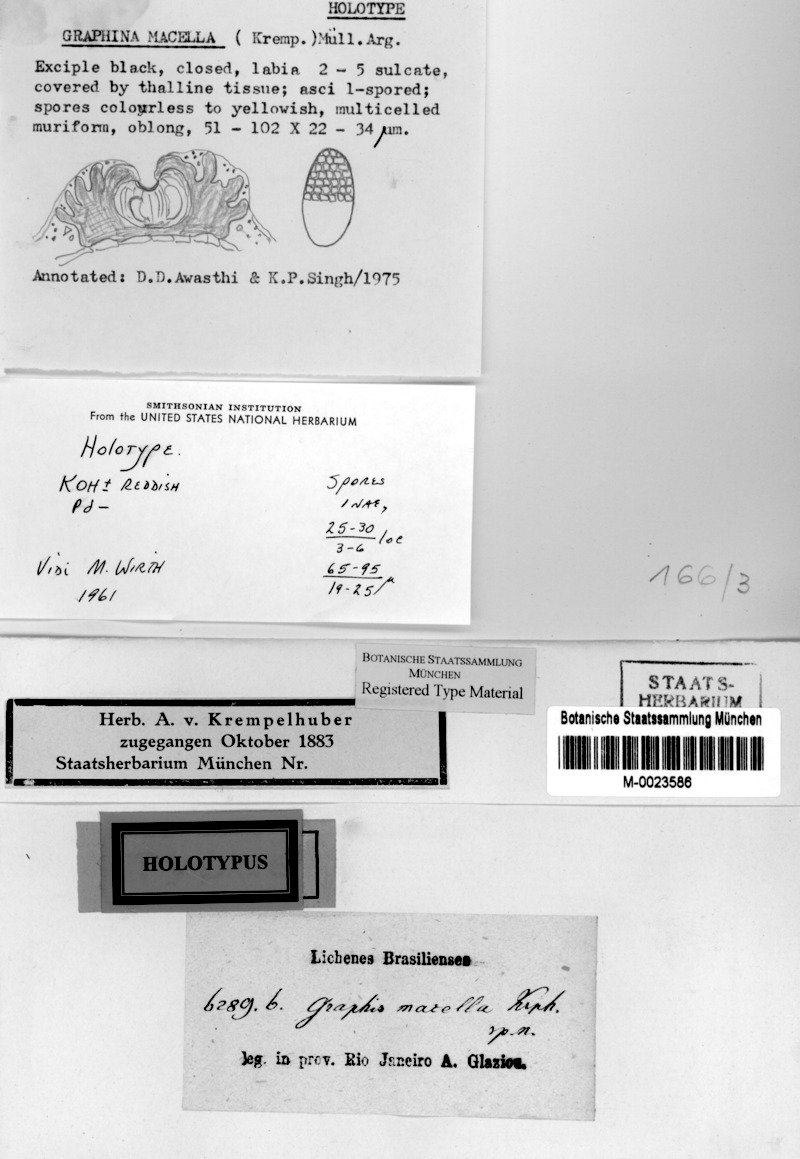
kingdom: Fungi
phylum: Ascomycota
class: Lecanoromycetes
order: Ostropales
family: Graphidaceae
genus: Allographa
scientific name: Allographa macella
